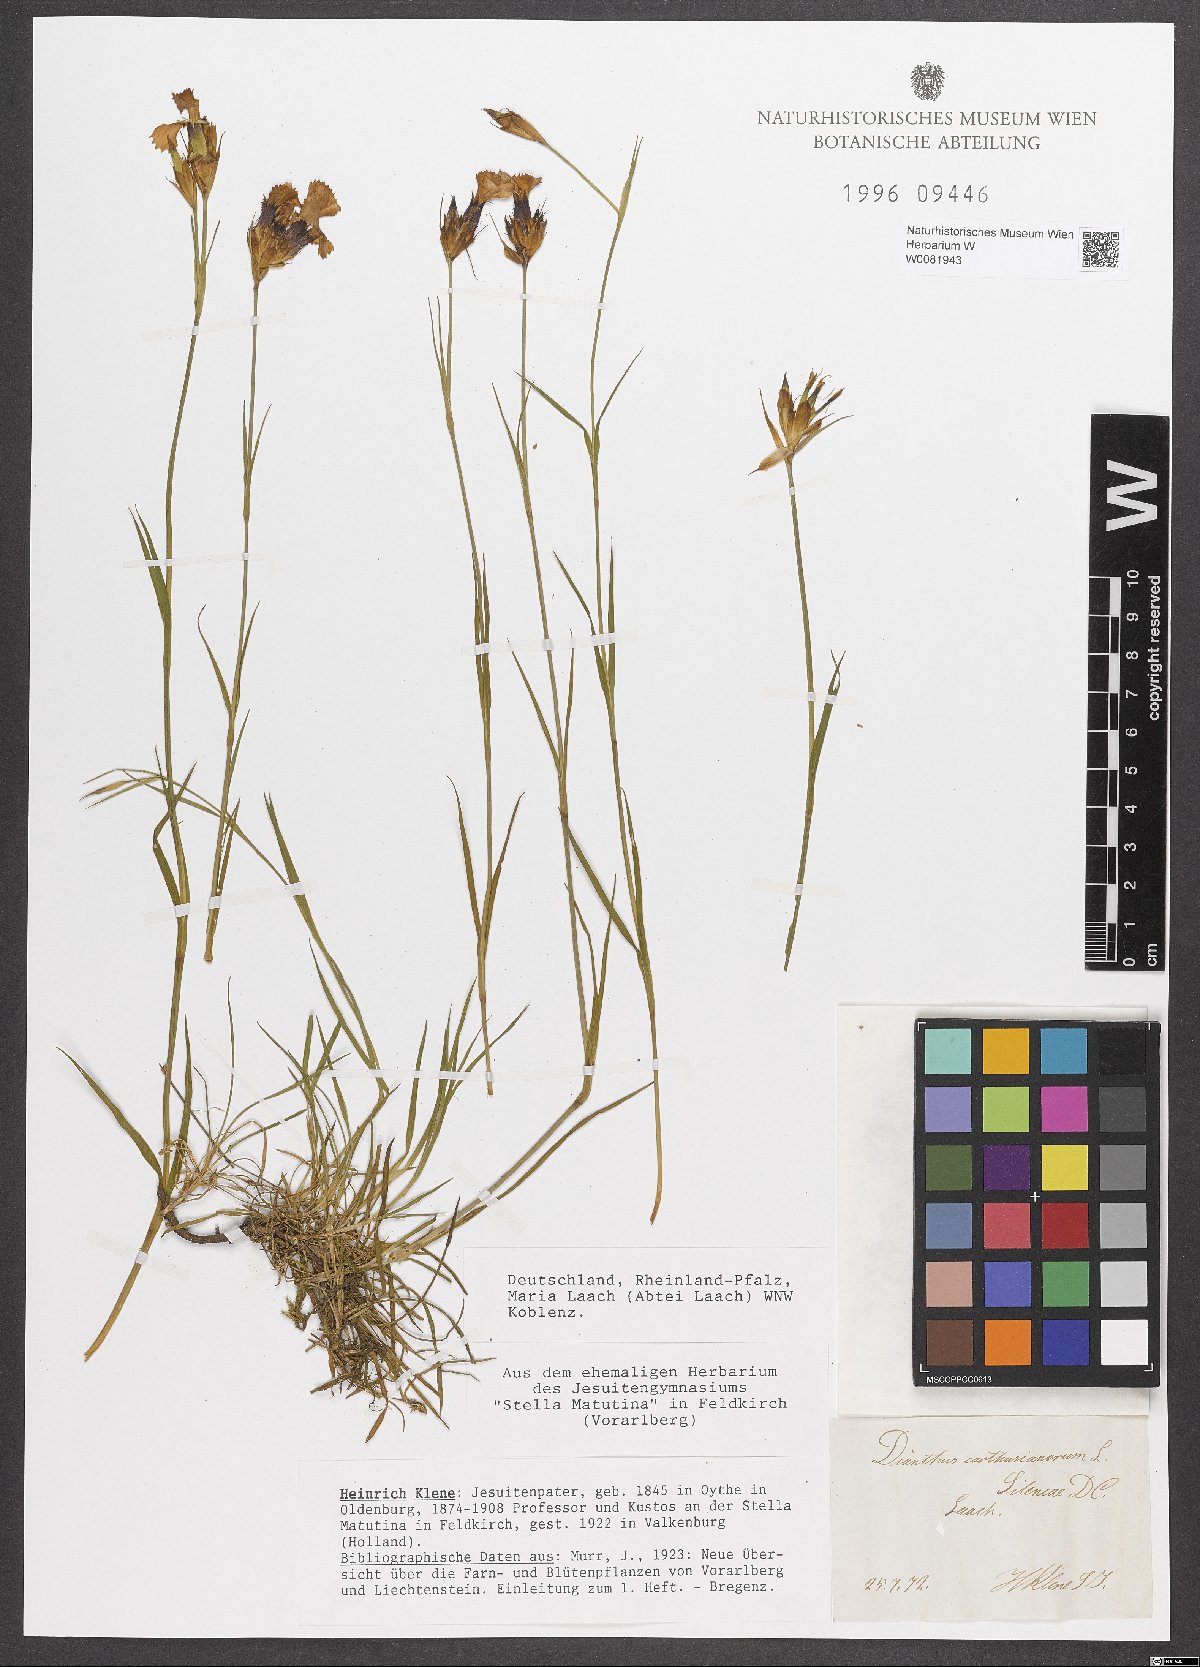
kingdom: Plantae
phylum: Tracheophyta
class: Magnoliopsida
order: Caryophyllales
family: Caryophyllaceae
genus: Dianthus
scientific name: Dianthus carthusianorum
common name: Carthusian pink
